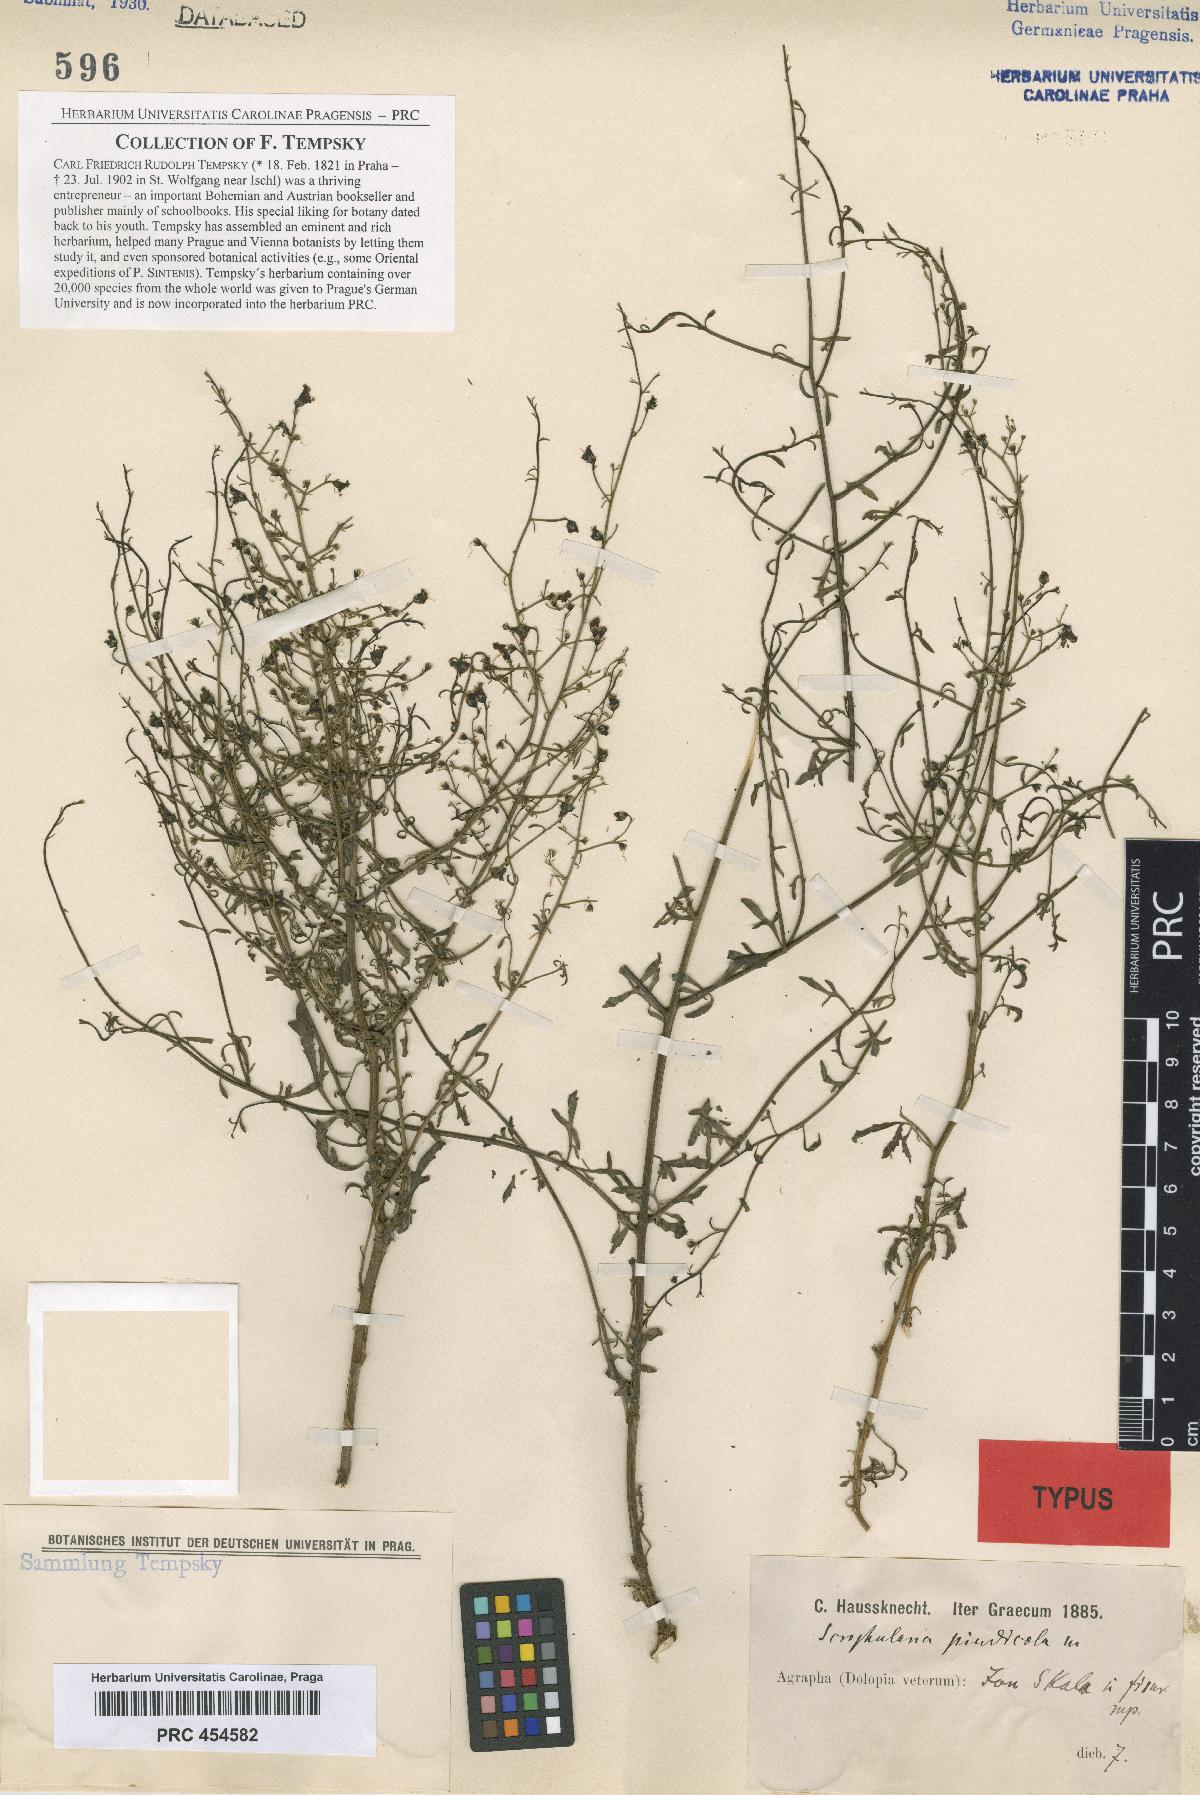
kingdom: Plantae
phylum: Tracheophyta
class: Magnoliopsida
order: Lamiales
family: Scrophulariaceae
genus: Scrophularia
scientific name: Scrophularia canina
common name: French figwort
